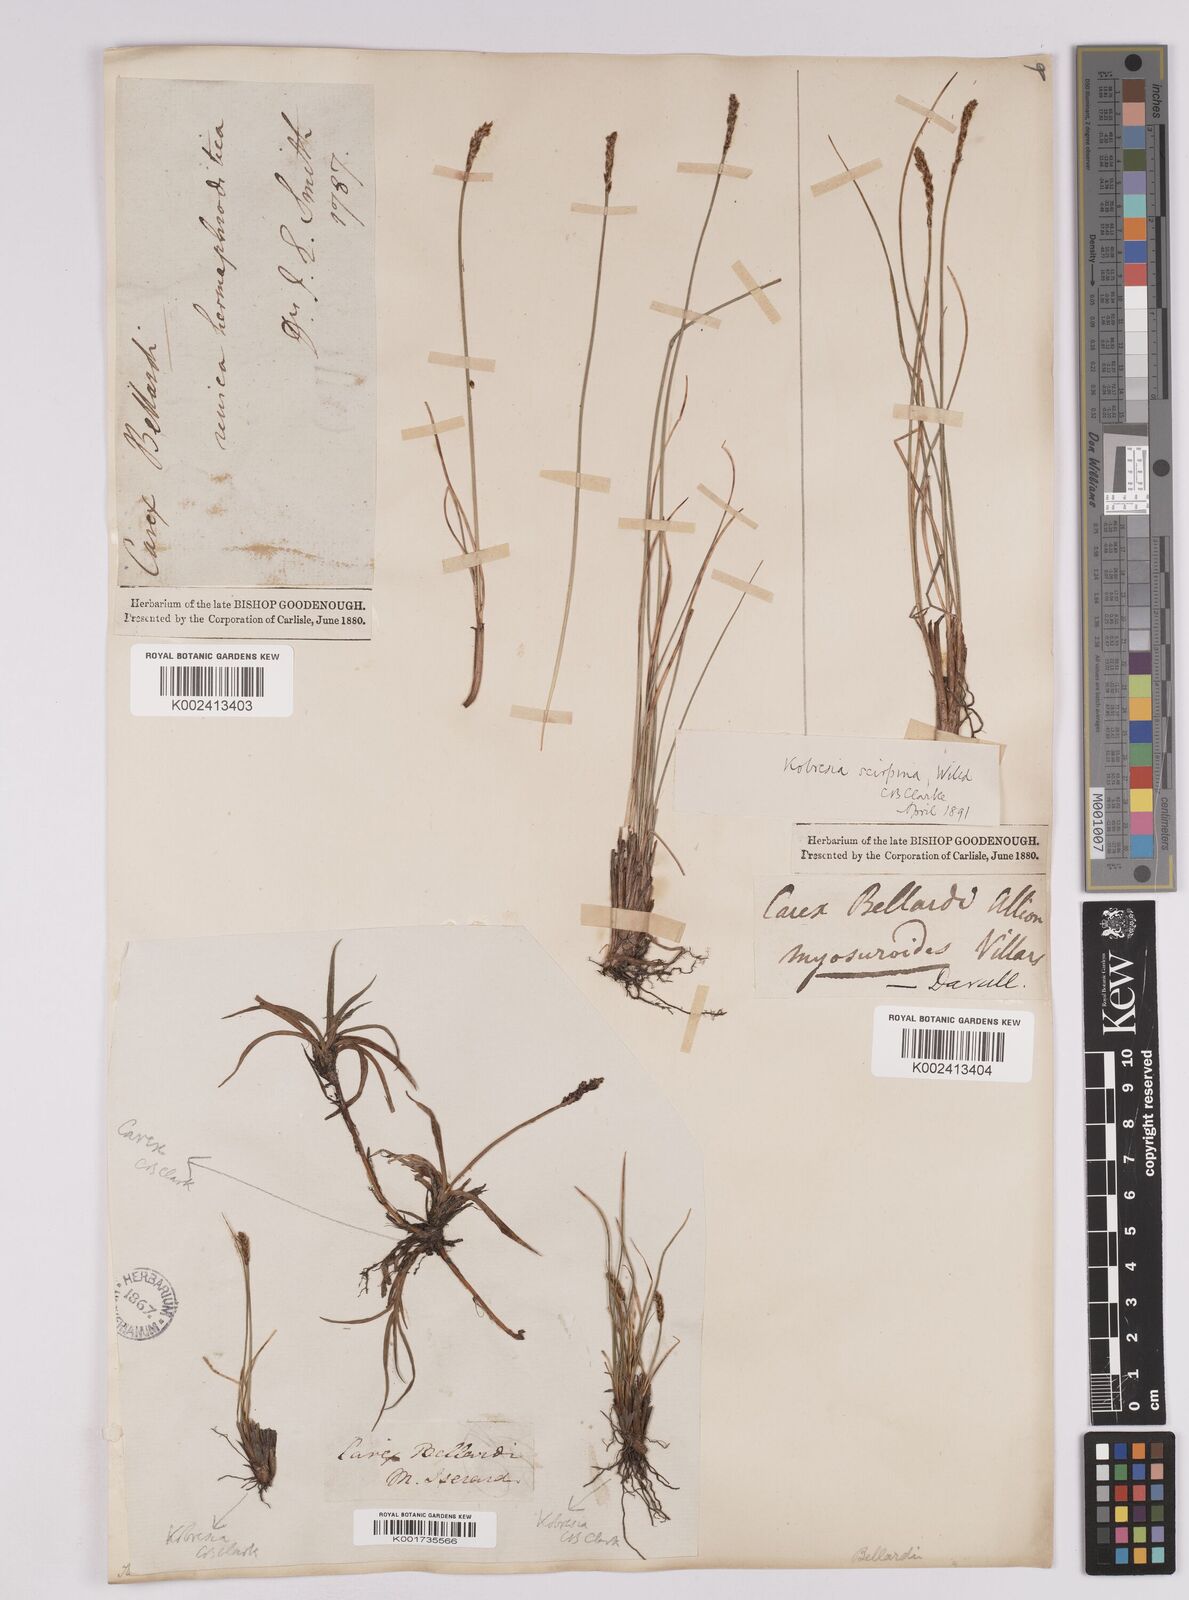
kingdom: Plantae
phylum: Tracheophyta
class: Liliopsida
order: Poales
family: Cyperaceae
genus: Carex
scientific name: Carex myosuroides
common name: Bellard's bog sedge
